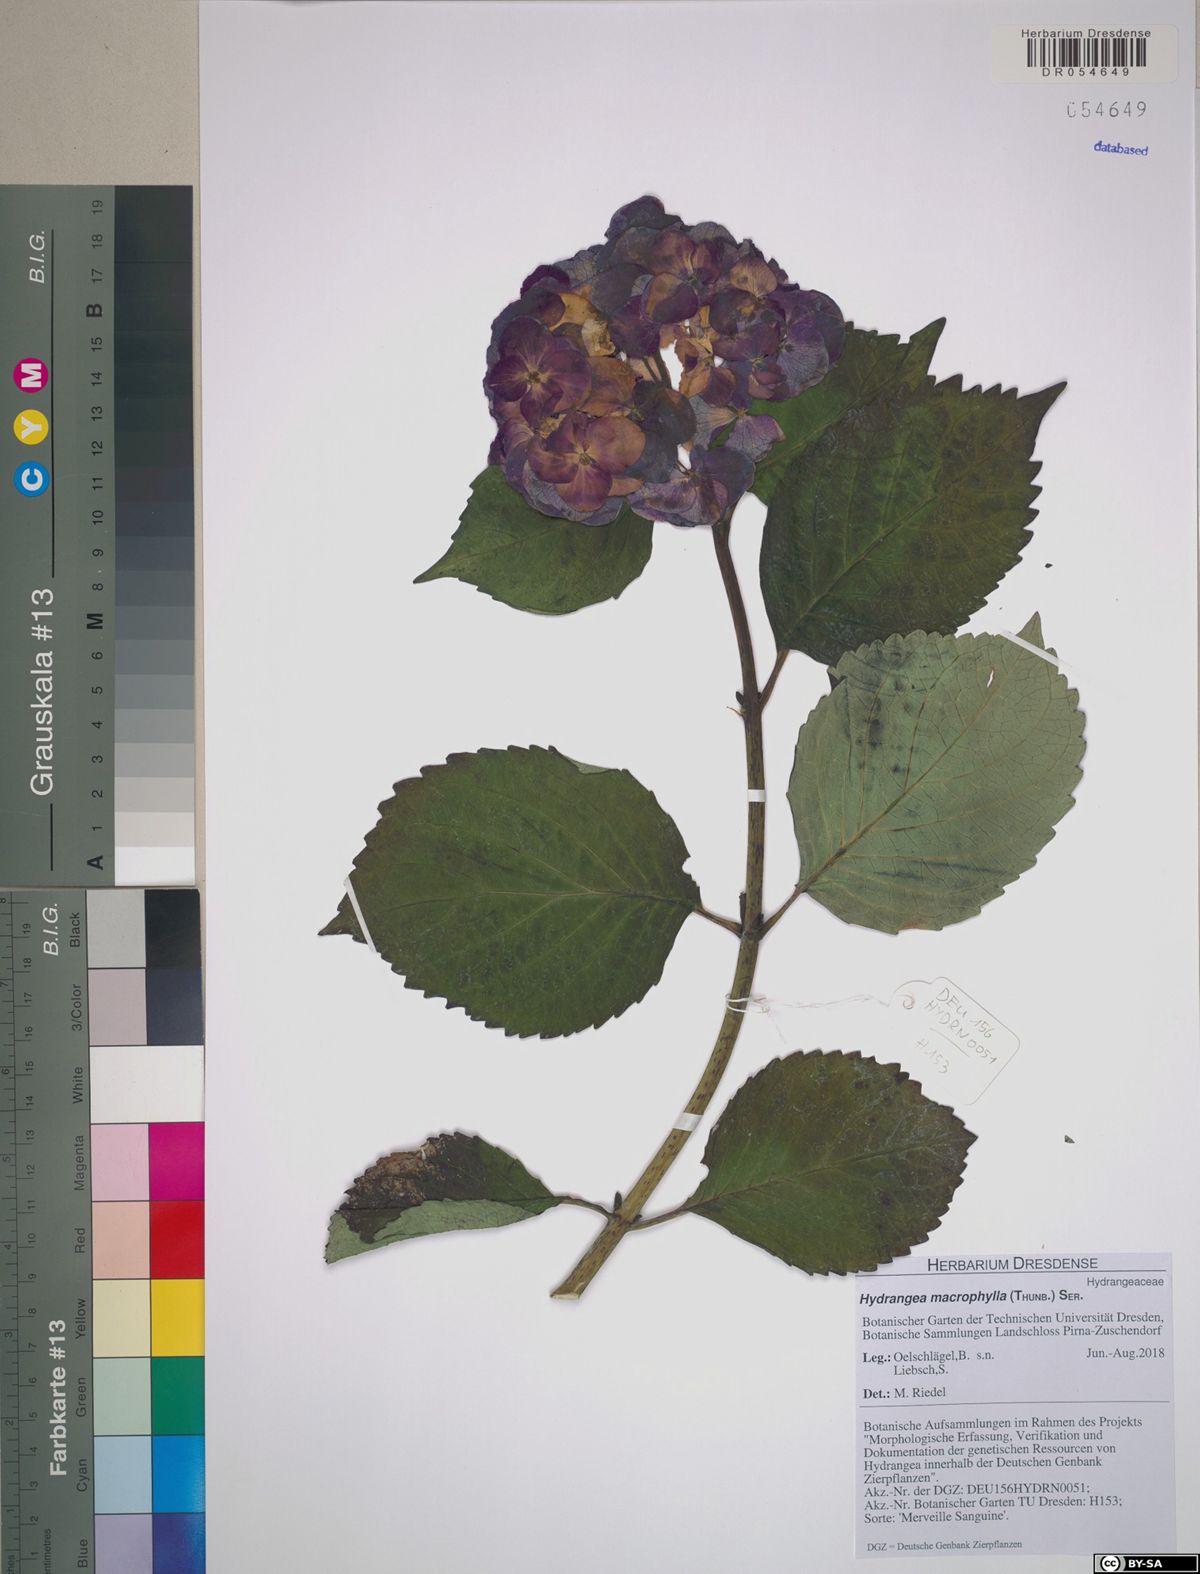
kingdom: Plantae
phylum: Tracheophyta
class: Magnoliopsida
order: Cornales
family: Hydrangeaceae
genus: Hydrangea
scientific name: Hydrangea macrophylla
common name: Hydrangea
